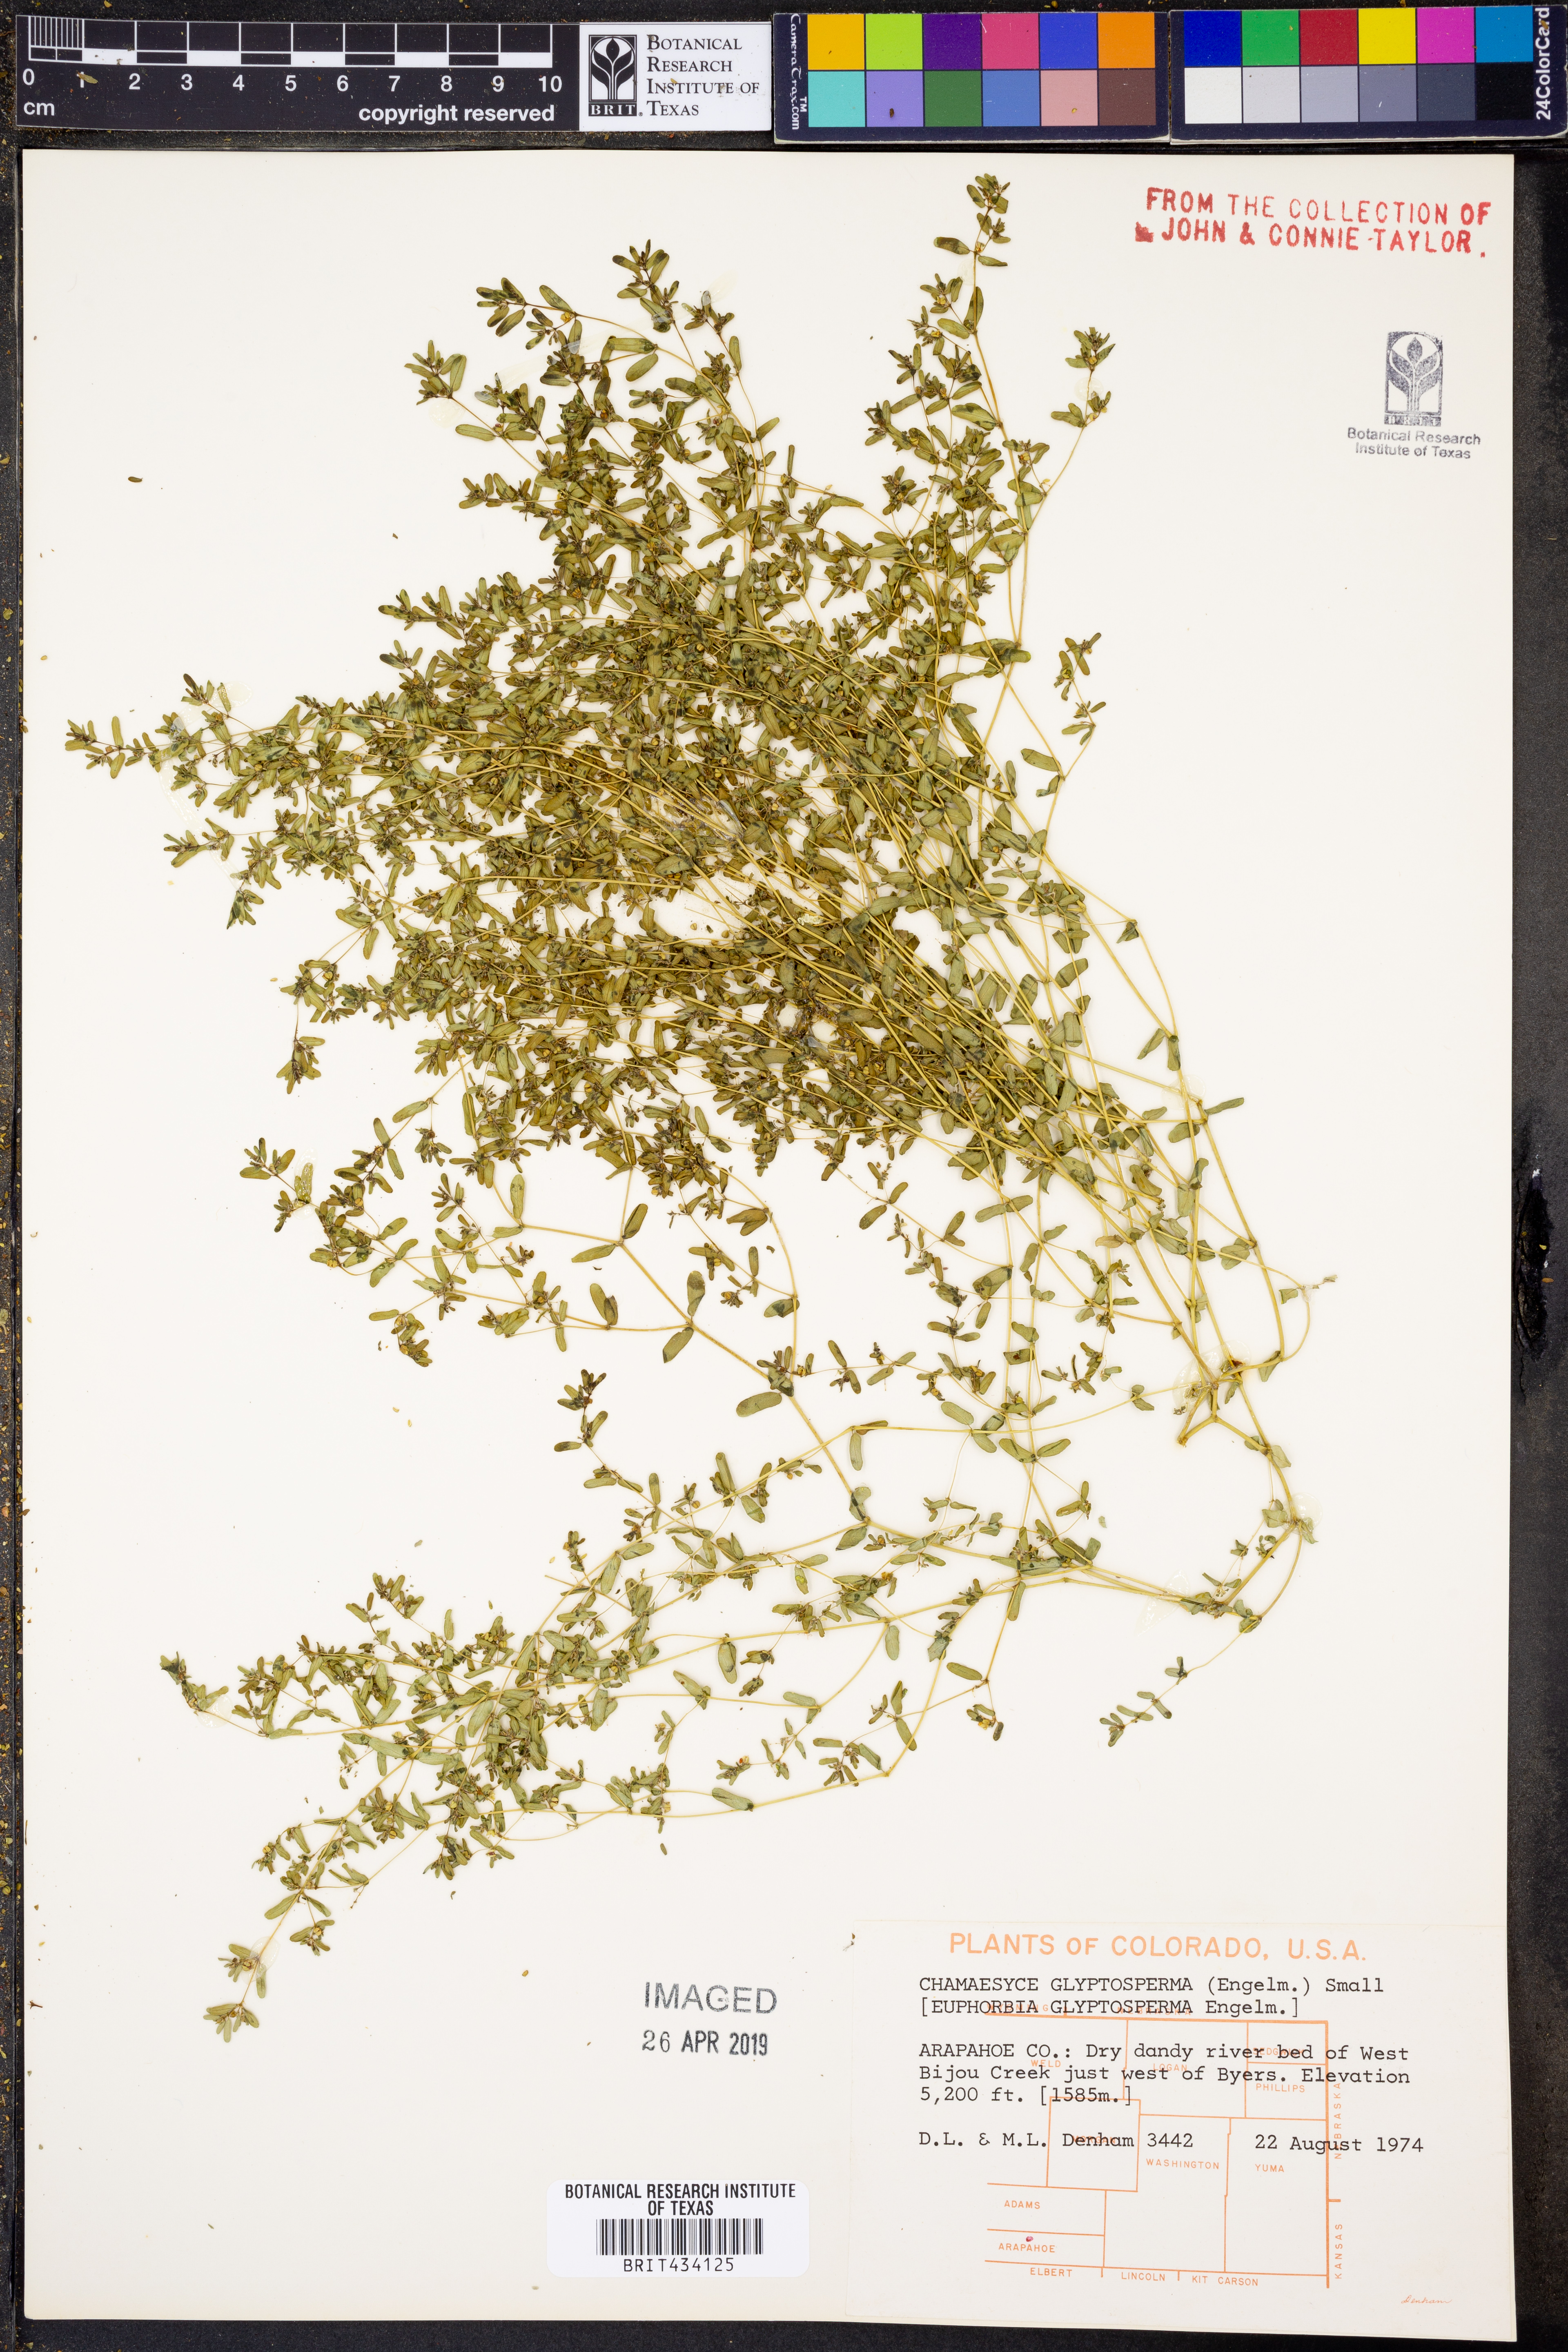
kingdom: Plantae
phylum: Tracheophyta
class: Magnoliopsida
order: Malpighiales
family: Euphorbiaceae
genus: Euphorbia
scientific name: Euphorbia glyptosperma
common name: Corrugate-seeded spurge
